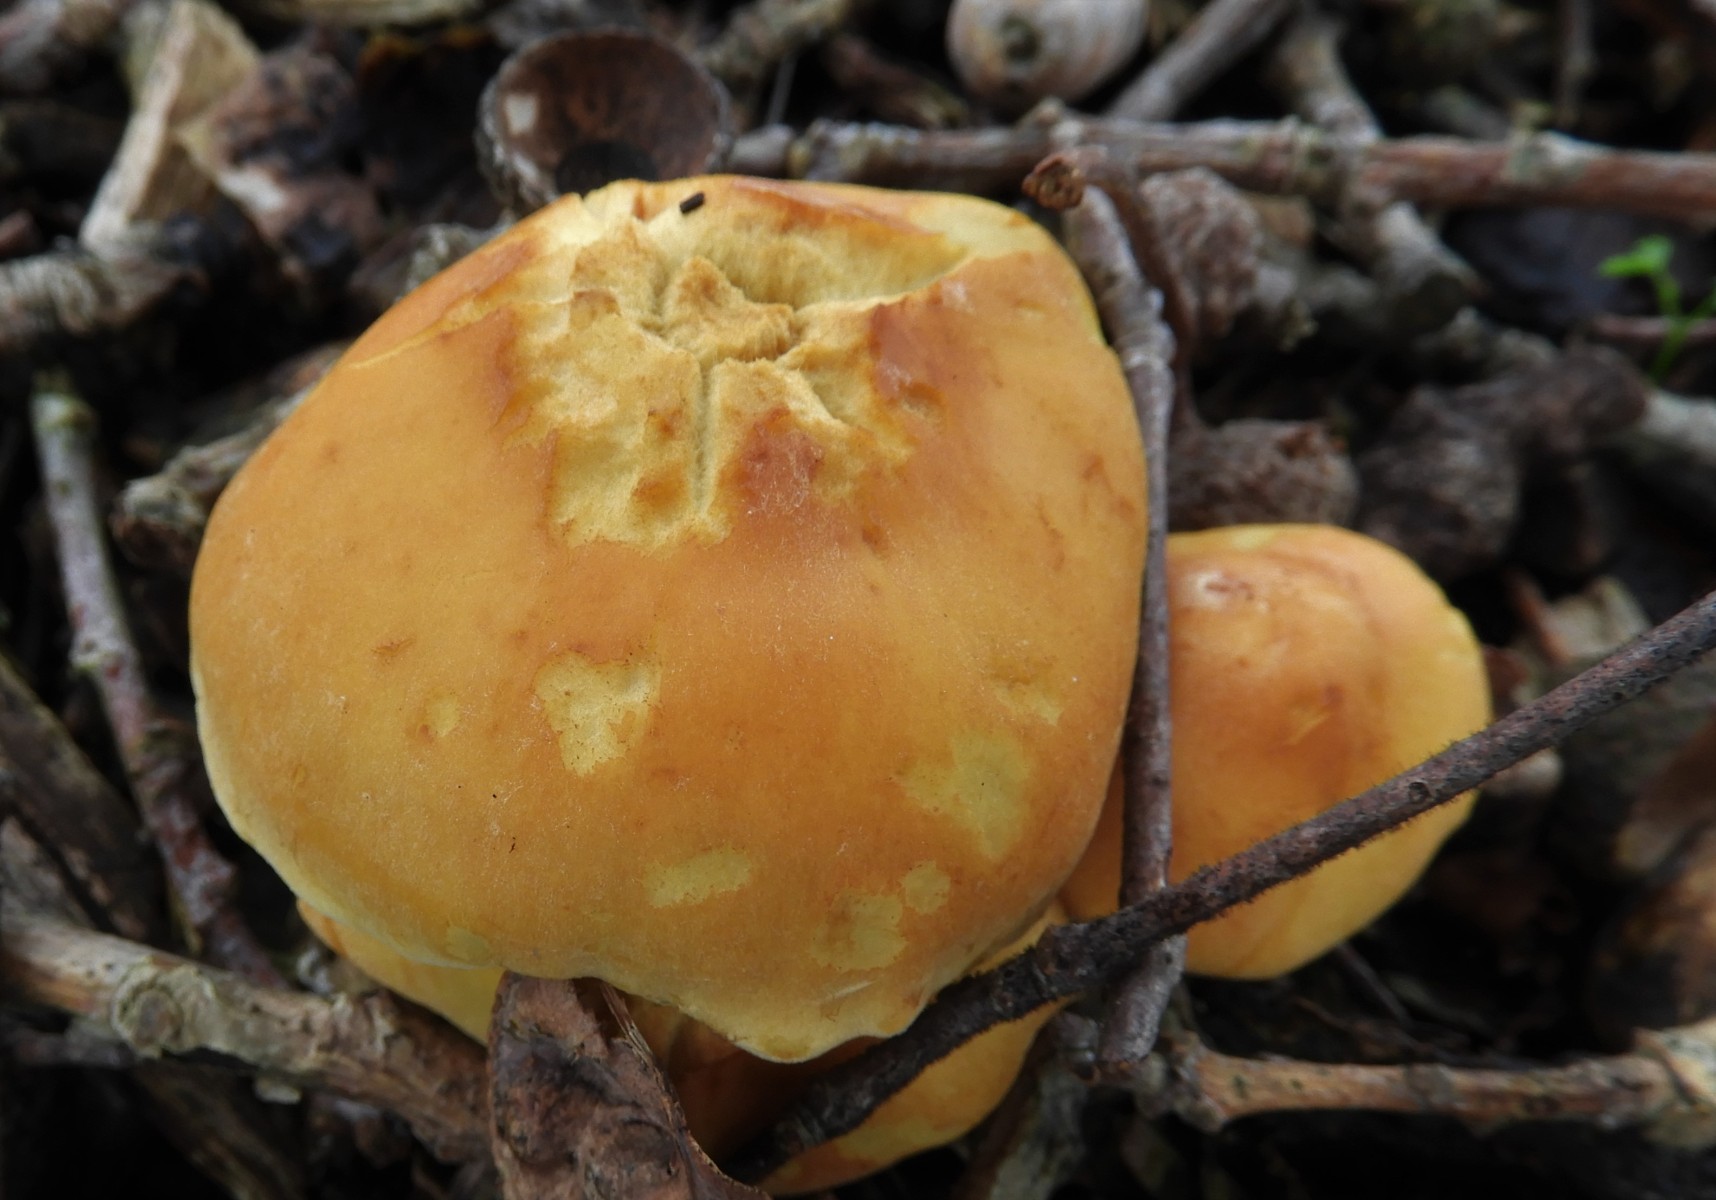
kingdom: Fungi
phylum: Basidiomycota
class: Agaricomycetes
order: Agaricales
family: Strophariaceae
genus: Hypholoma
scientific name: Hypholoma fasciculare
